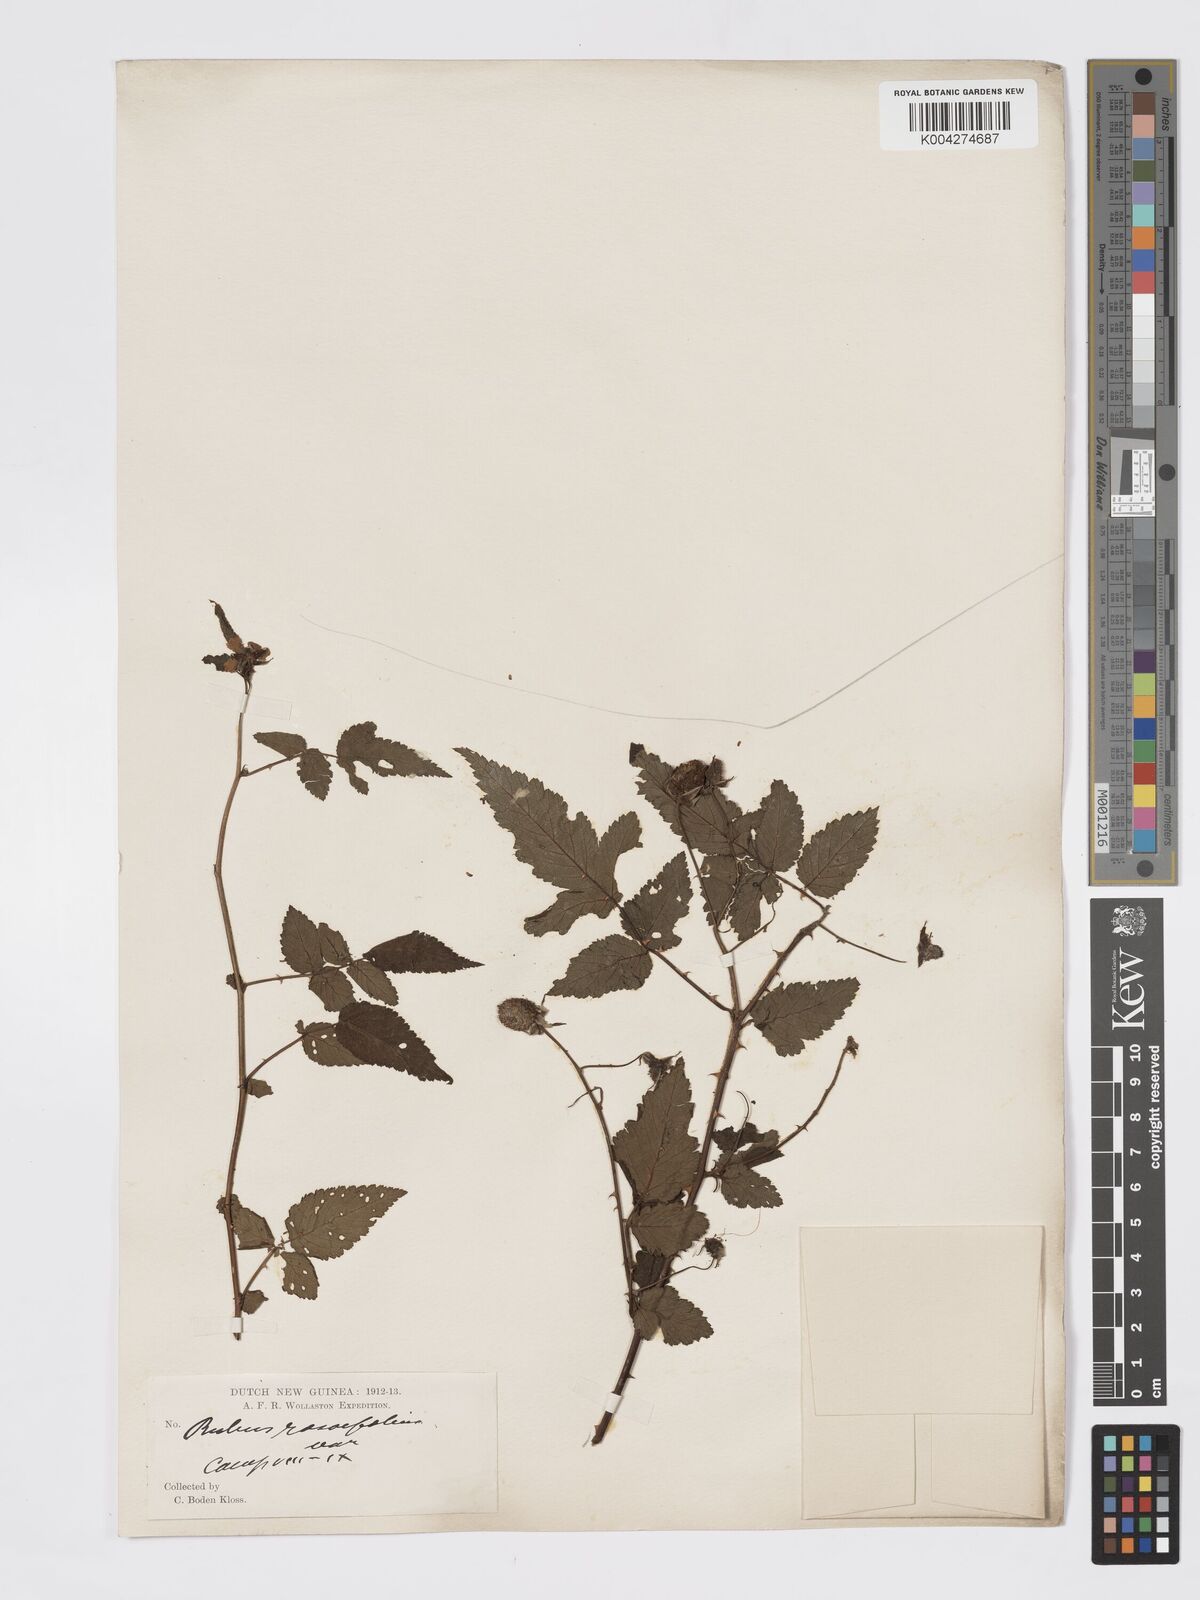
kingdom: Plantae
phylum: Tracheophyta
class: Magnoliopsida
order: Rosales
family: Rosaceae
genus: Rubus
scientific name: Rubus
